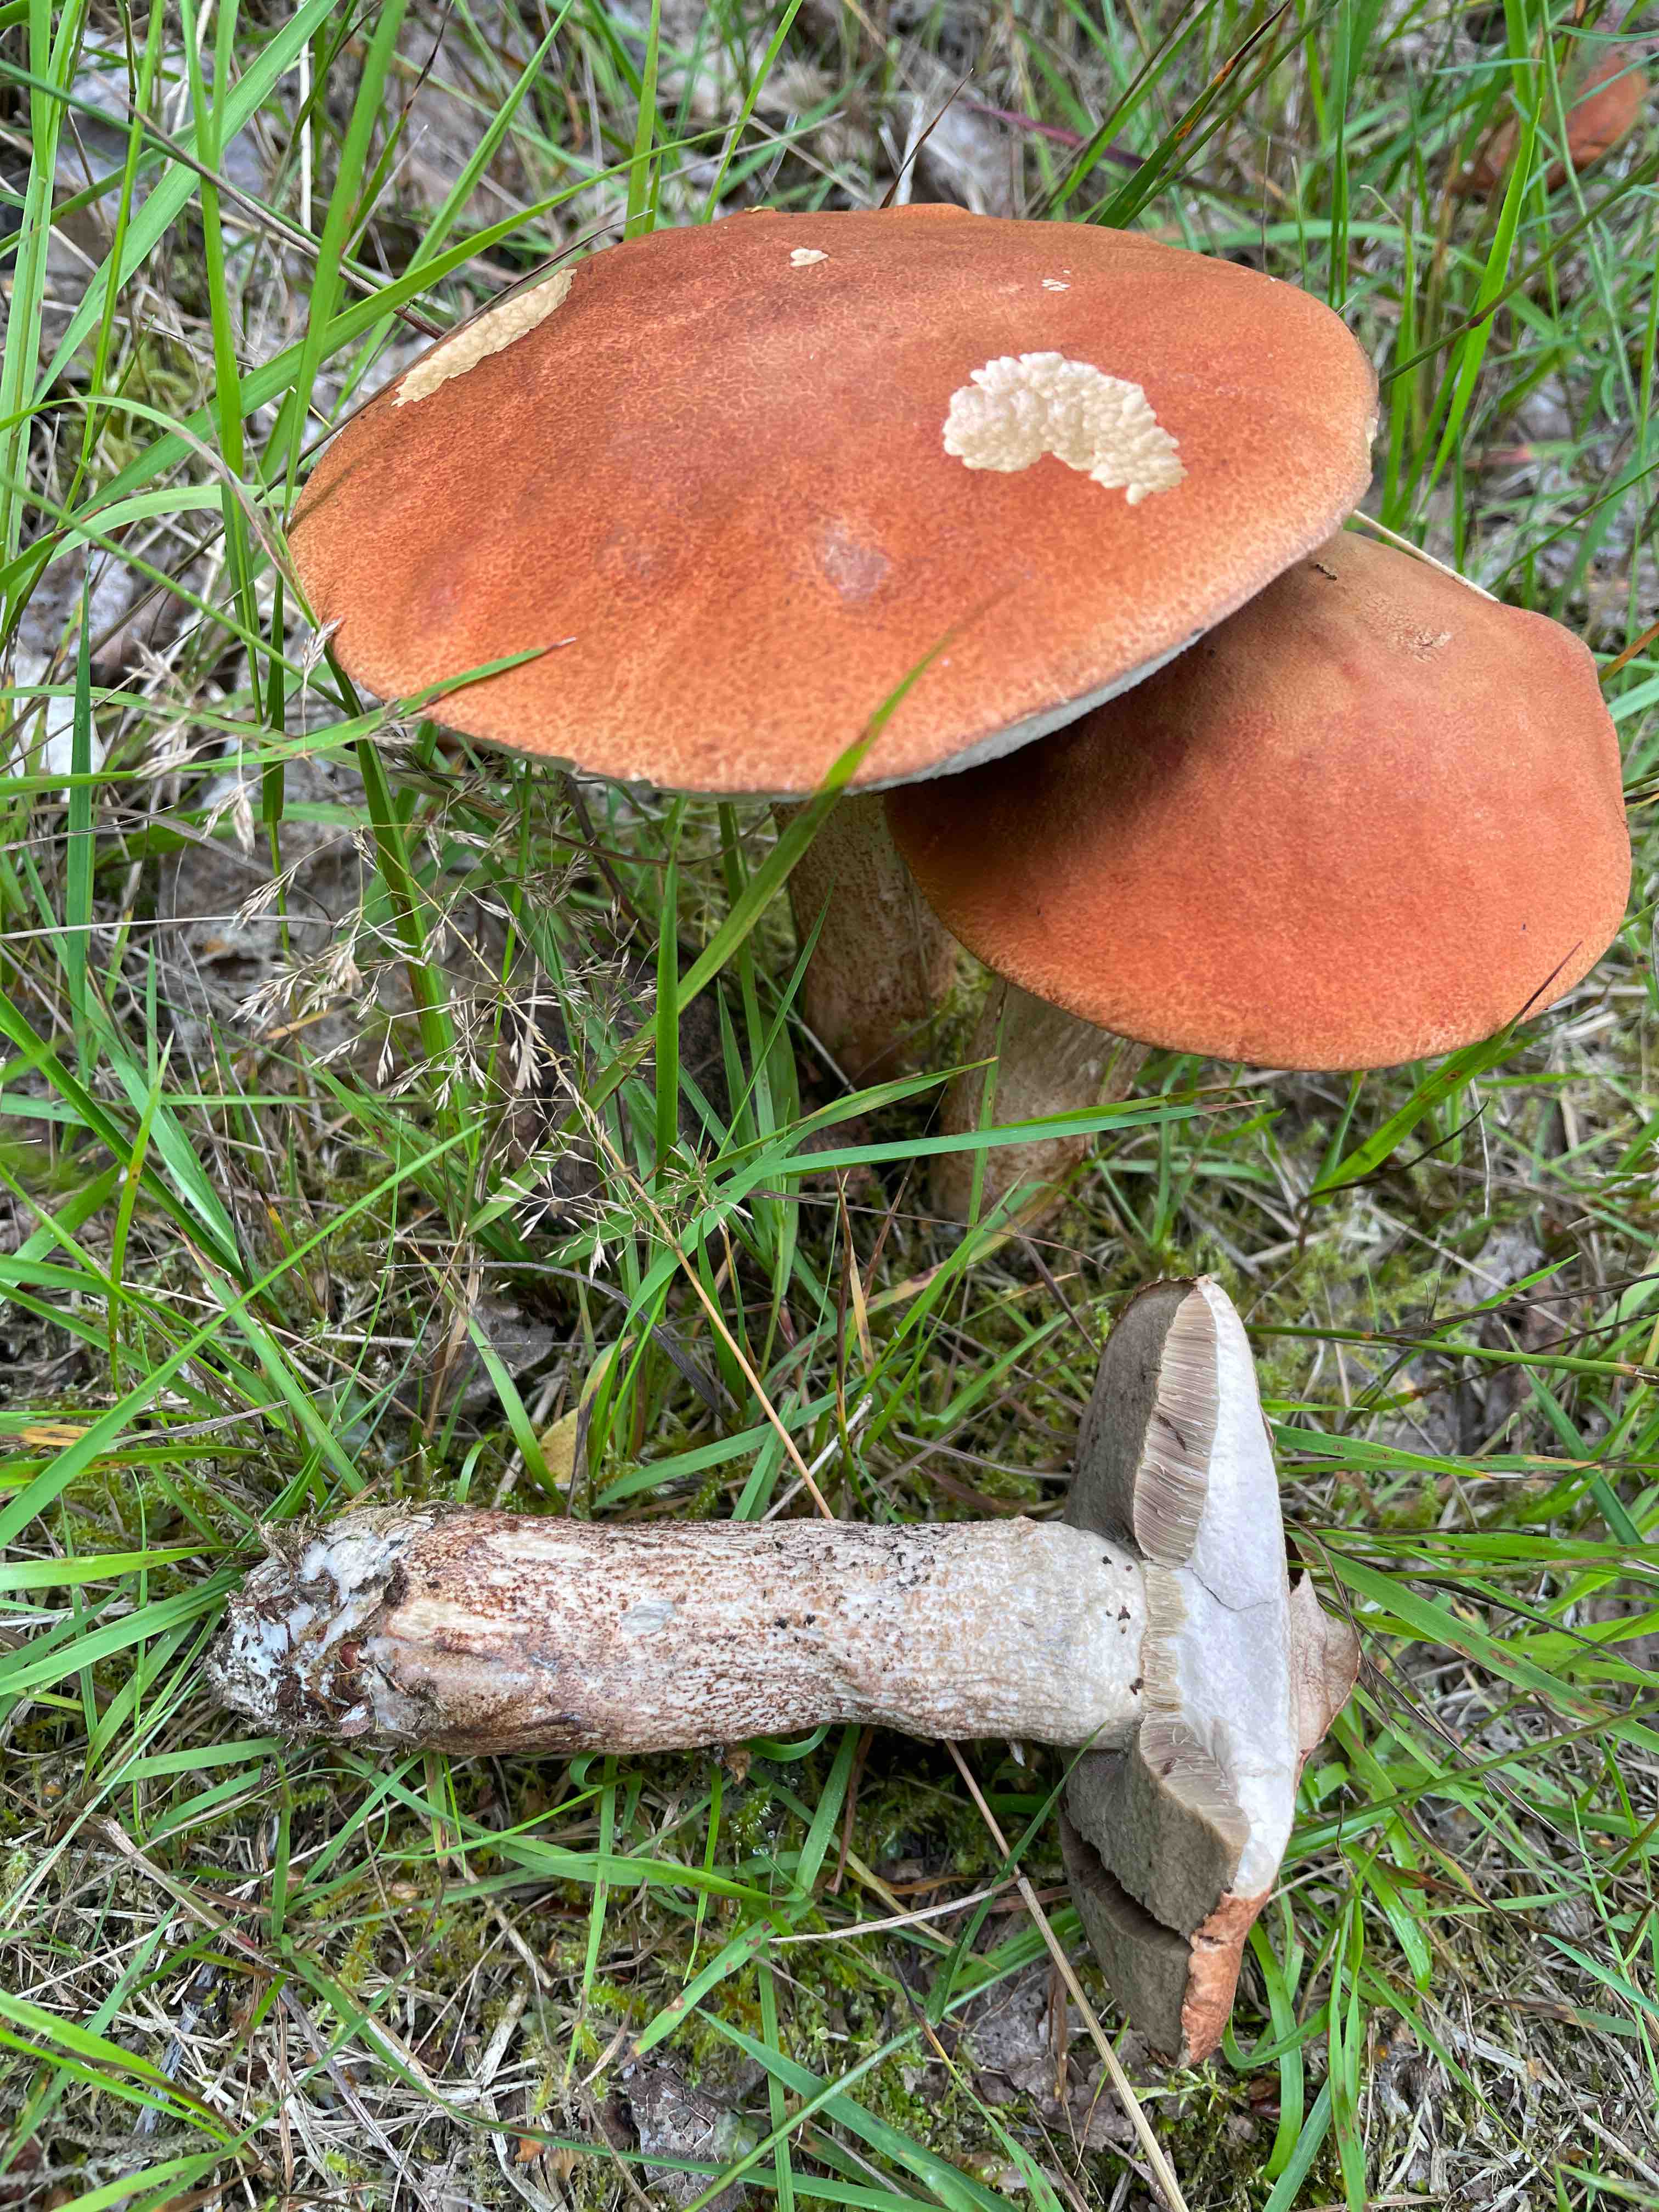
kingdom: Fungi
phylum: Basidiomycota
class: Agaricomycetes
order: Boletales
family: Boletaceae
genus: Leccinum
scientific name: Leccinum
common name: skælrørhat
